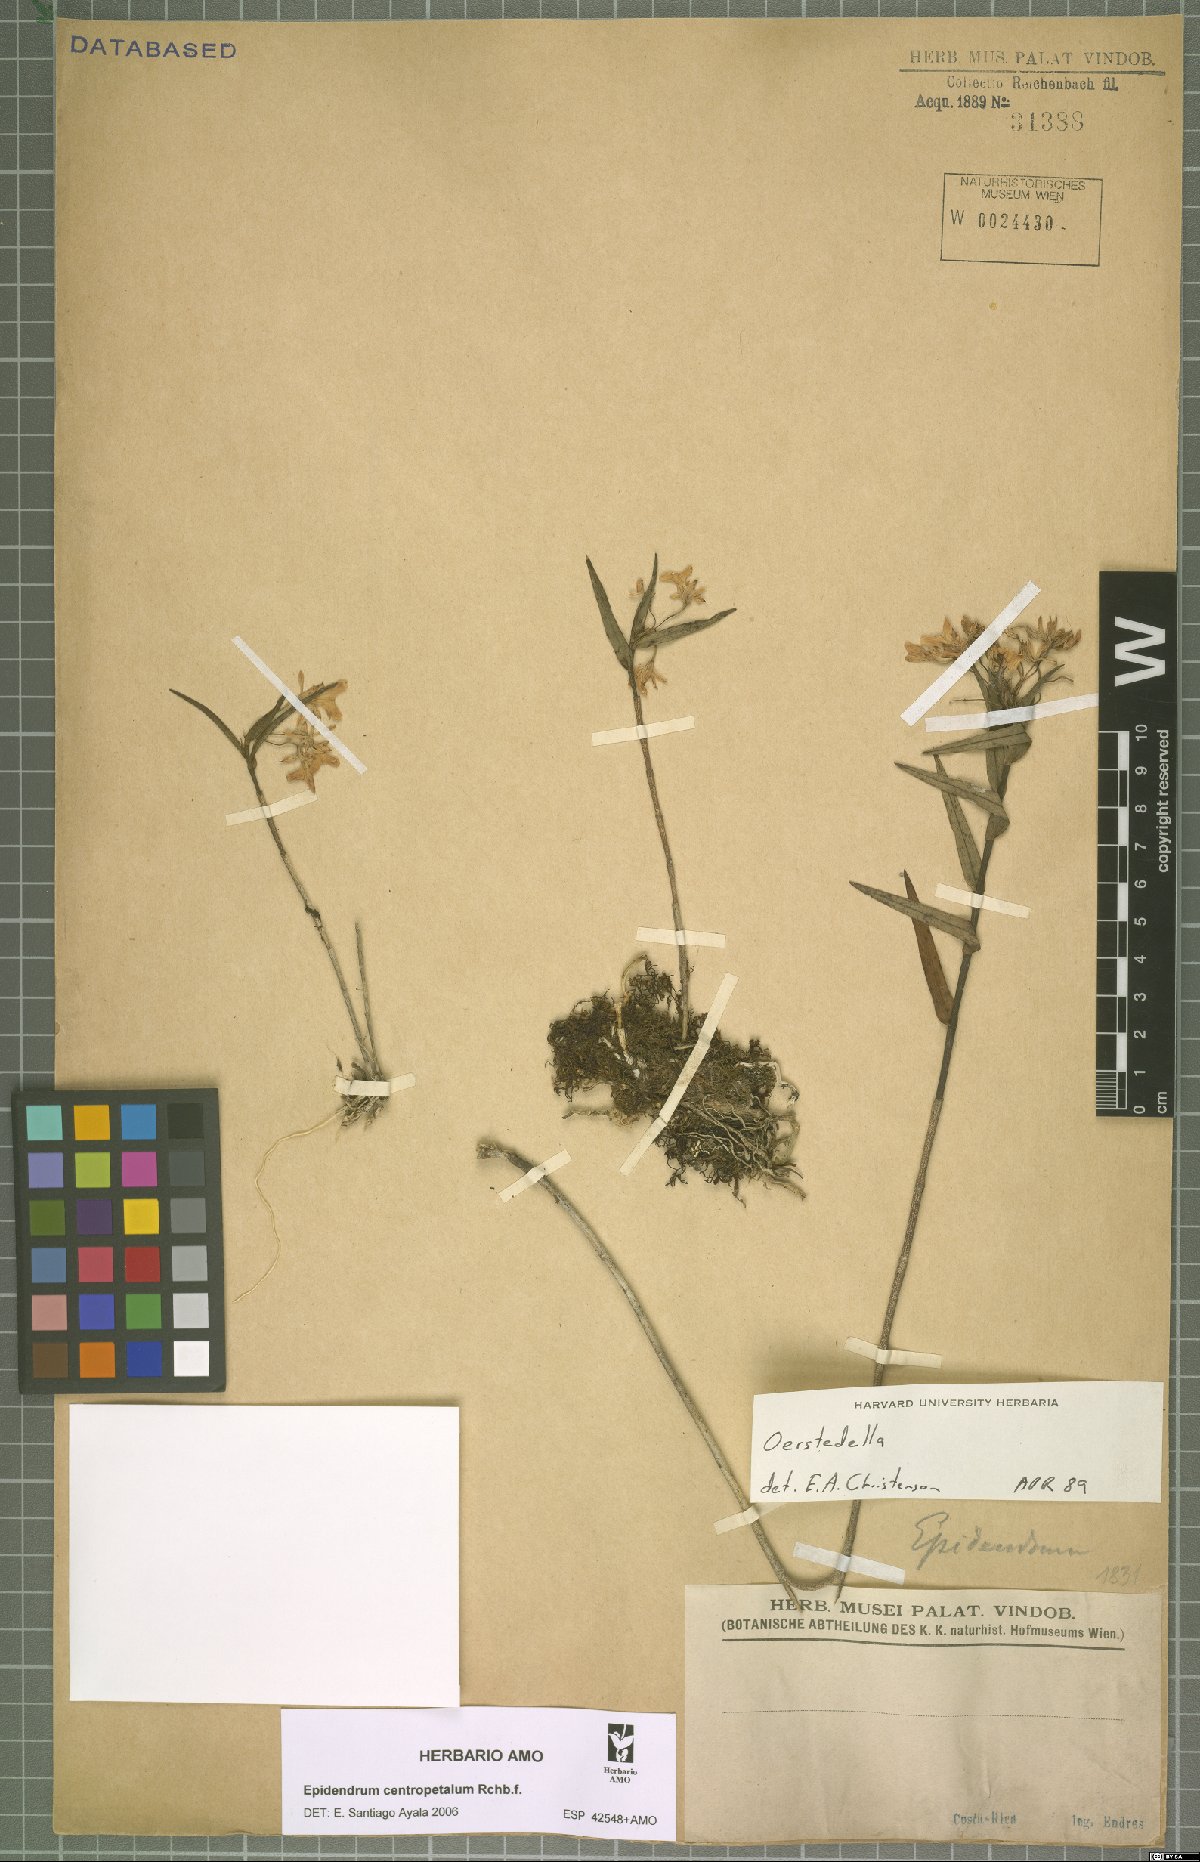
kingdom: Plantae
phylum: Tracheophyta
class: Liliopsida
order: Asparagales
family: Orchidaceae
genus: Epidendrum
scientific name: Epidendrum centropetalum
